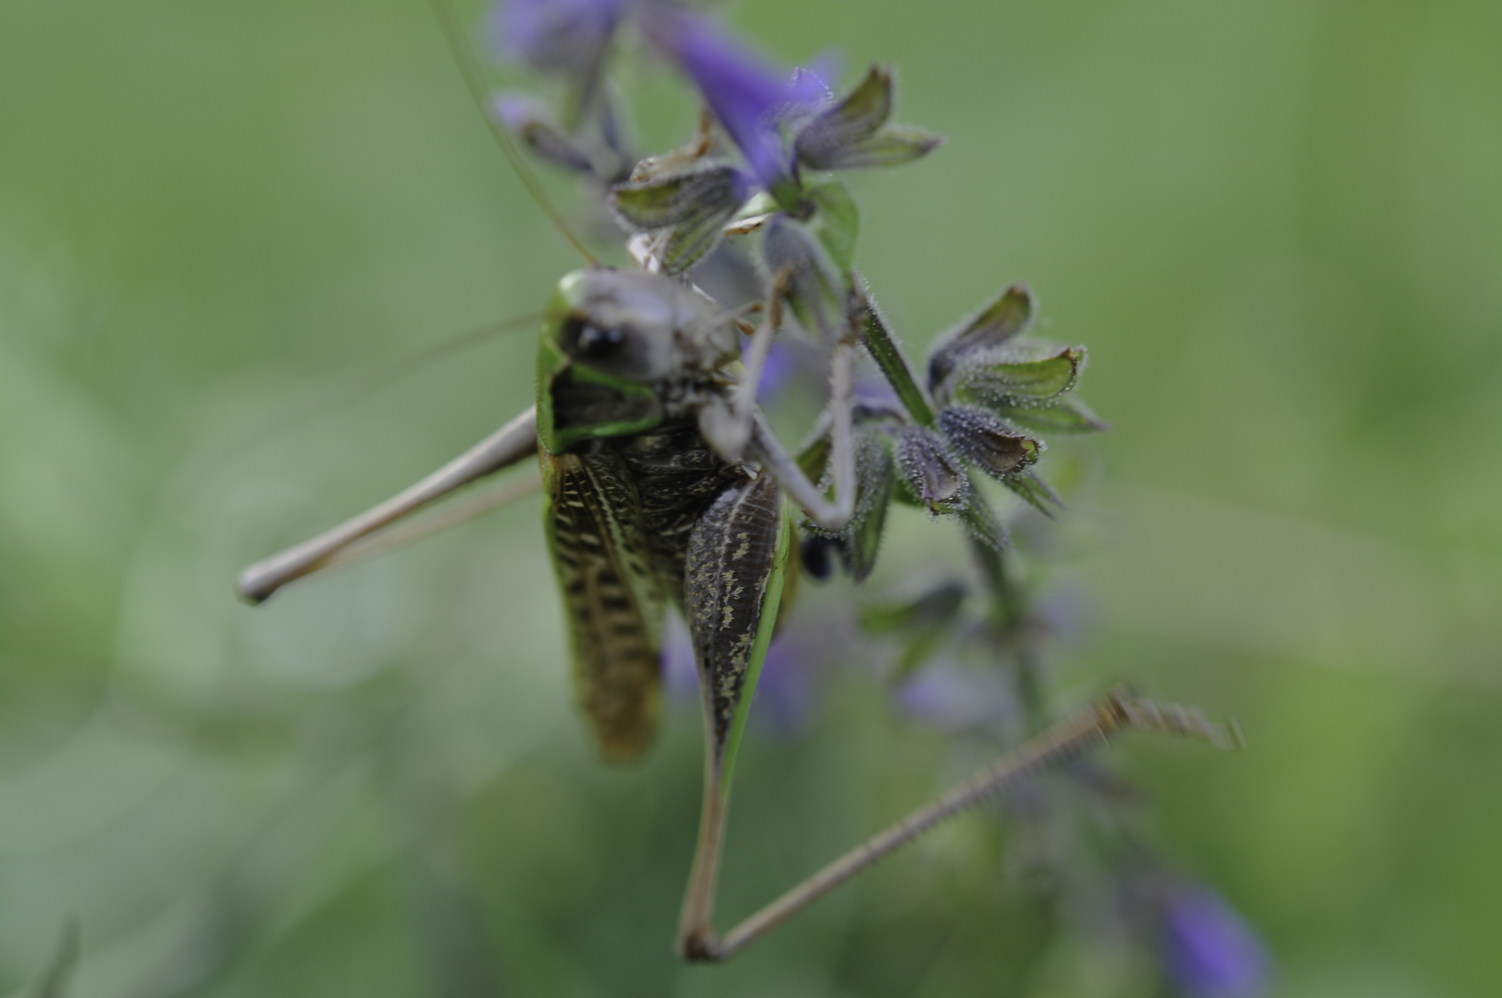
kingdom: Animalia
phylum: Arthropoda
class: Insecta
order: Orthoptera
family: Tettigoniidae
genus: Decticus
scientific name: Decticus verrucivorus
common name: Wart-biter
